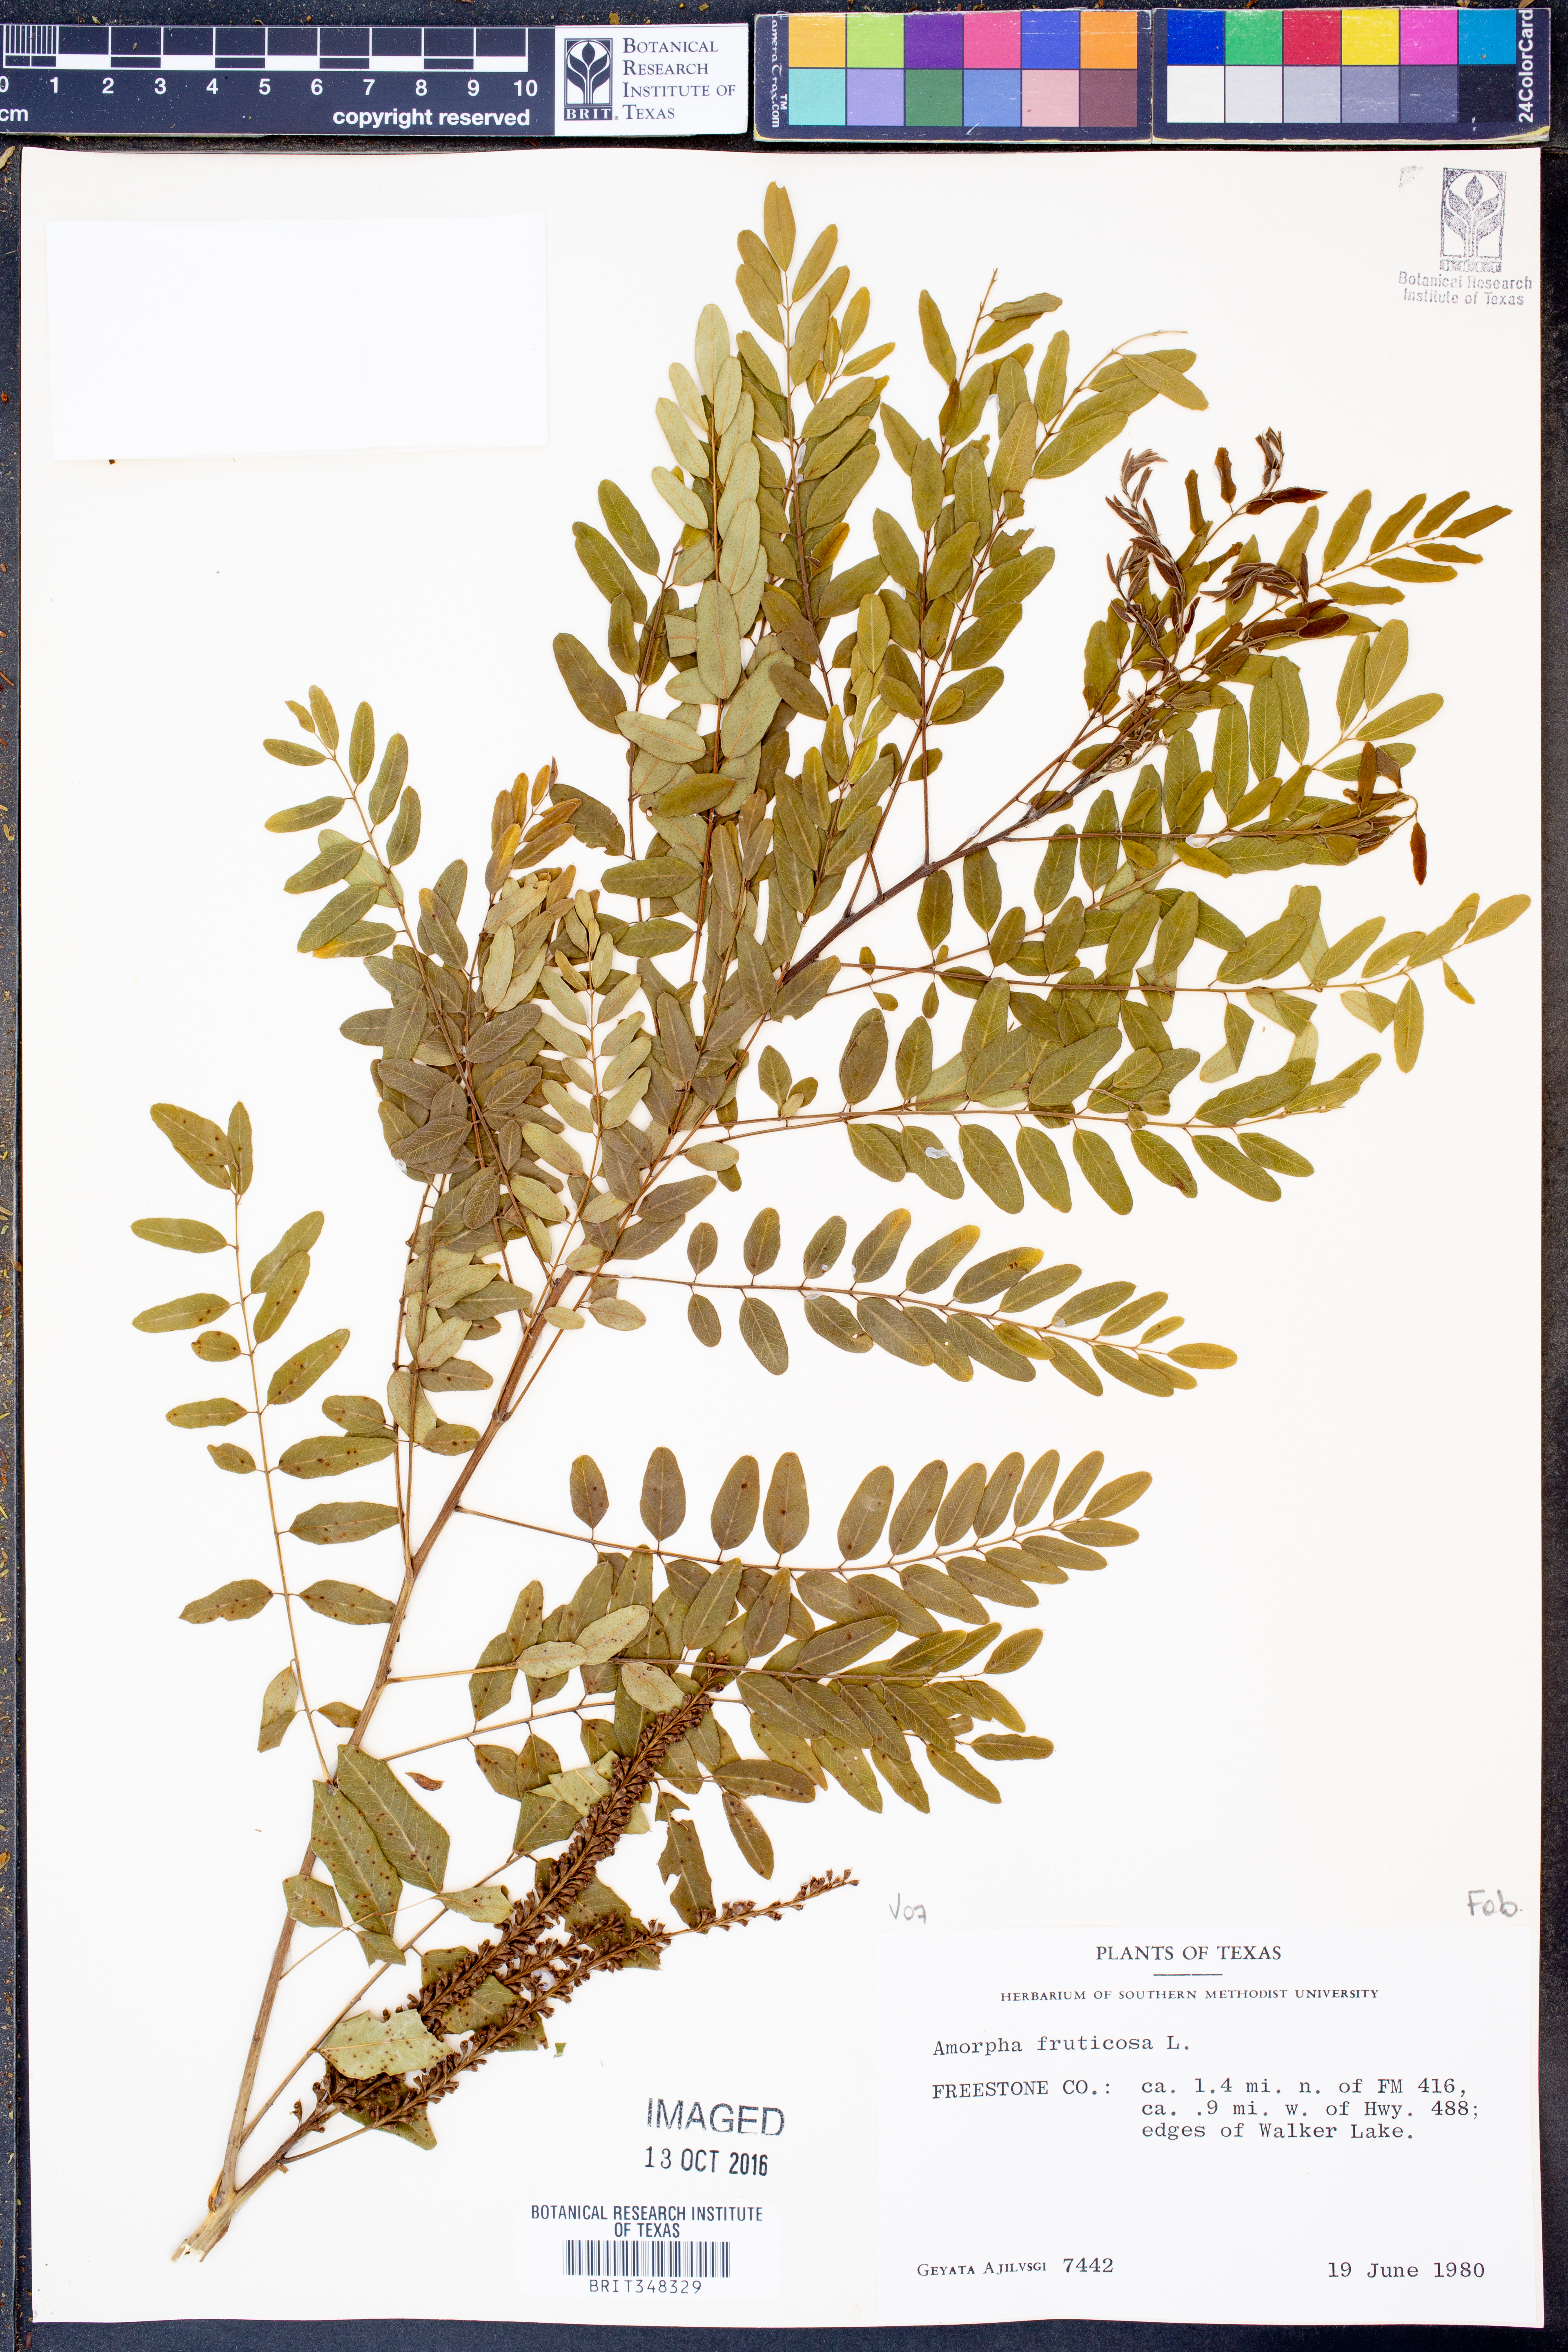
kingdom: Plantae
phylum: Tracheophyta
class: Magnoliopsida
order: Fabales
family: Fabaceae
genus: Amorpha
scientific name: Amorpha fruticosa
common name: False indigo
